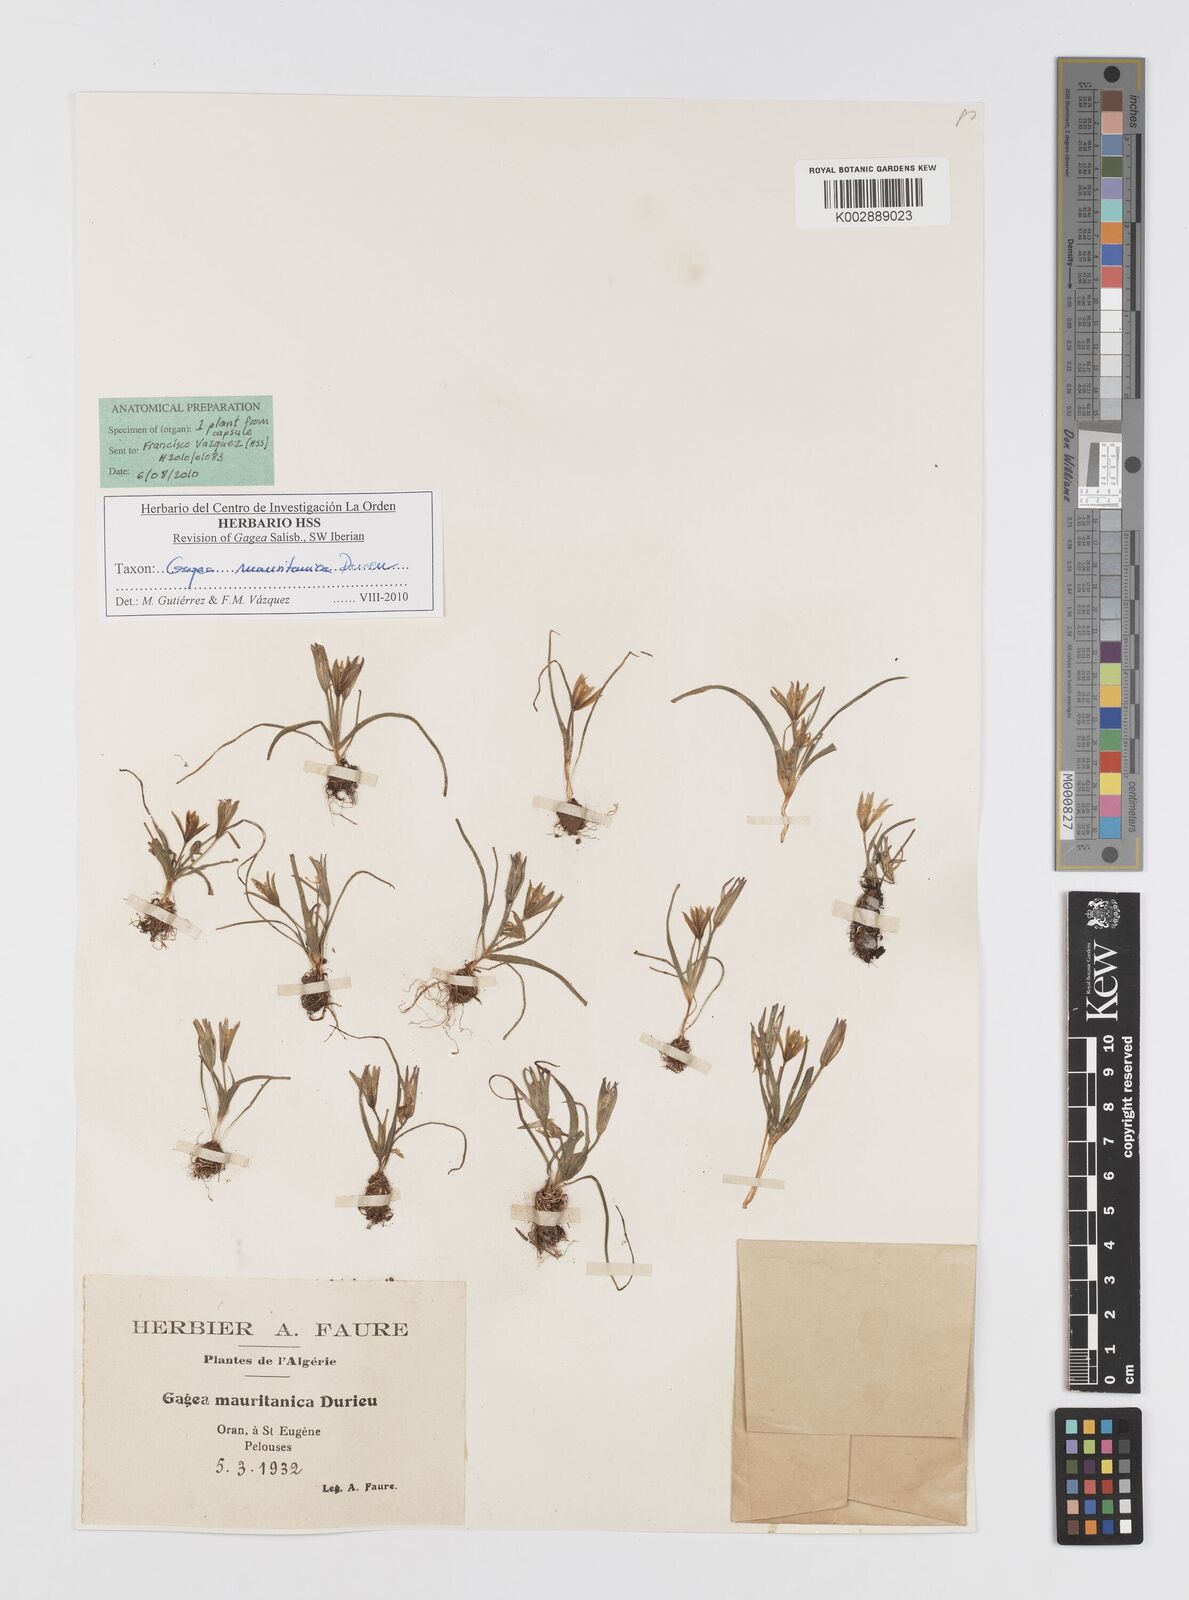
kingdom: Plantae
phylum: Tracheophyta
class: Liliopsida
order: Liliales
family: Liliaceae
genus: Gagea
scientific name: Gagea mauritanica
